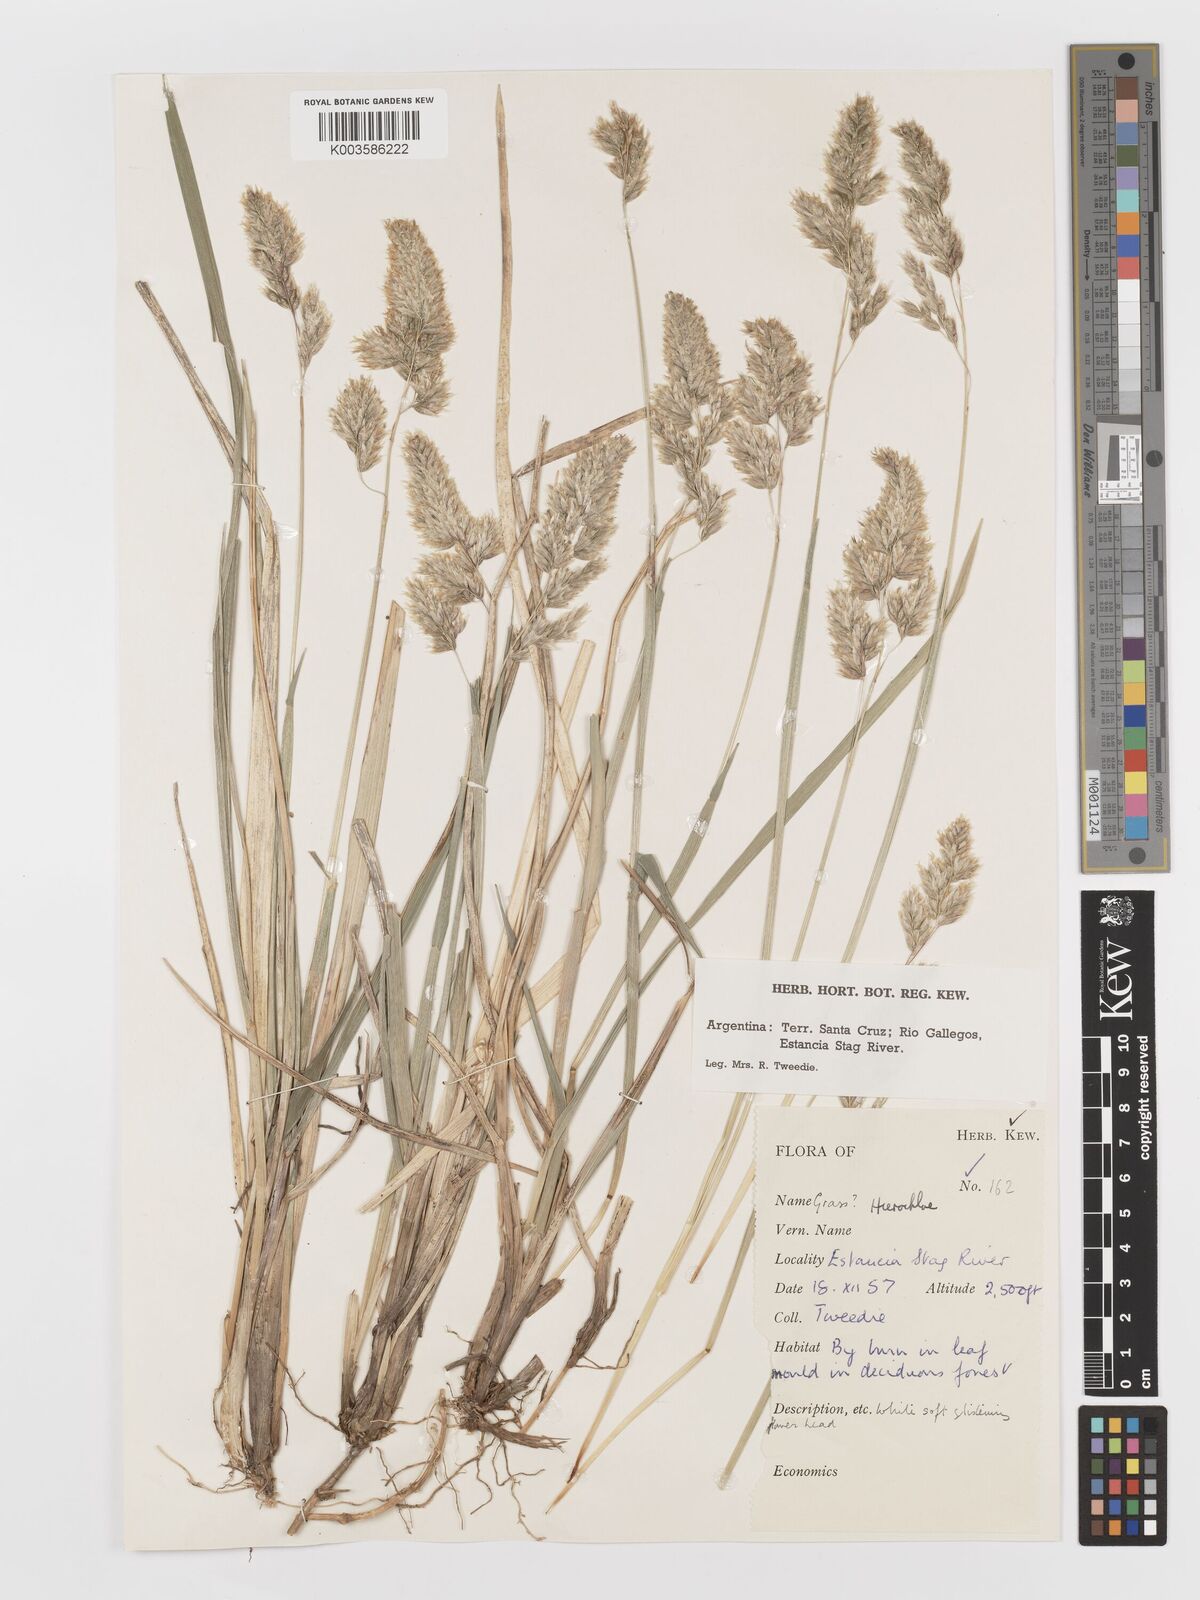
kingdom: Plantae
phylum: Tracheophyta
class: Liliopsida
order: Poales
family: Poaceae
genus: Anthoxanthum
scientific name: Anthoxanthum redolens
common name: Sweet holy grass
